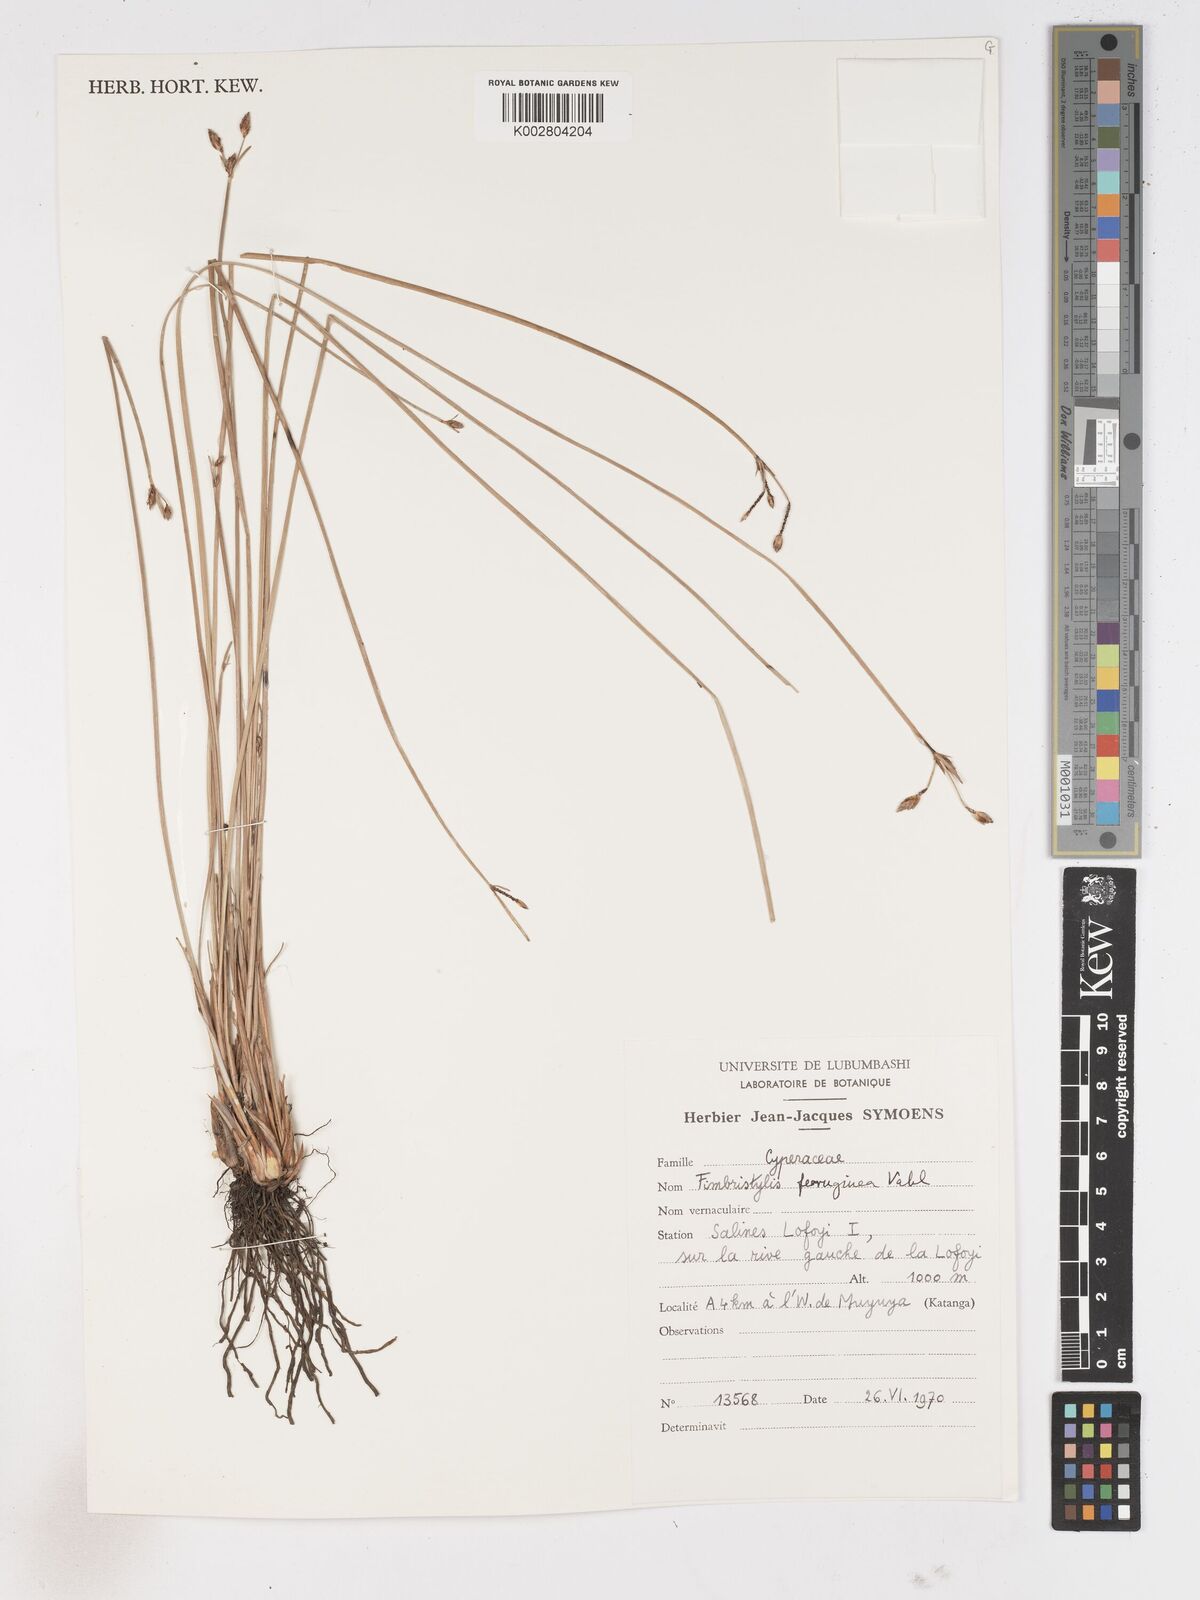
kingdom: Plantae
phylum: Tracheophyta
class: Liliopsida
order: Poales
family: Cyperaceae
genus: Fimbristylis
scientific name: Fimbristylis ferruginea
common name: West indian fimbry
